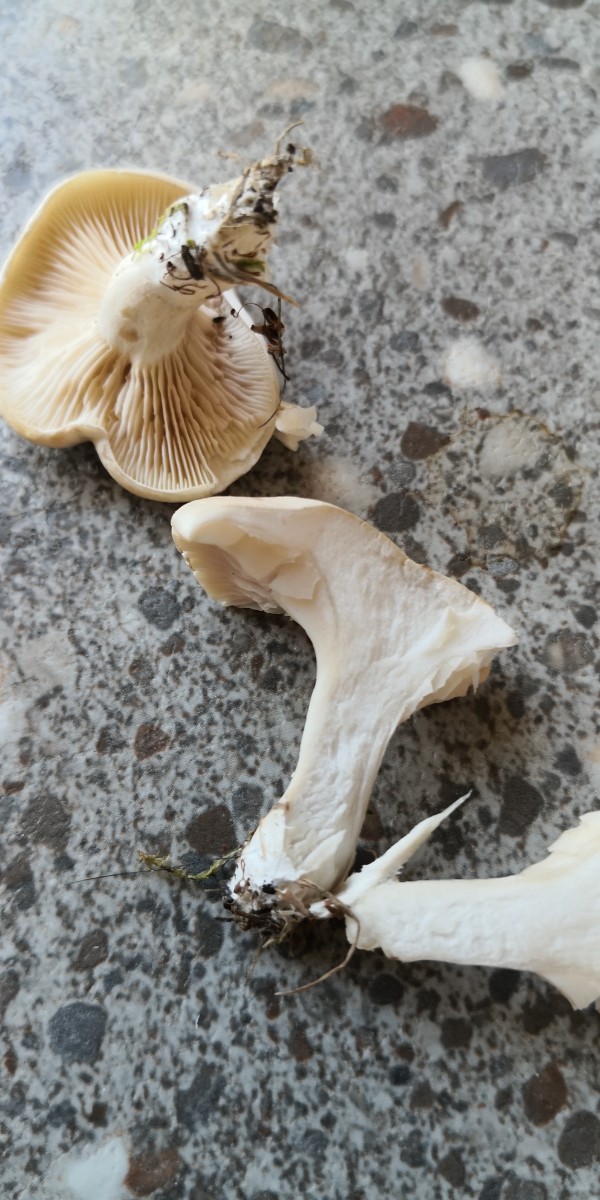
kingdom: Fungi
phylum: Basidiomycota
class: Agaricomycetes
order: Agaricales
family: Entolomataceae
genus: Clitopilus
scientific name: Clitopilus prunulus
